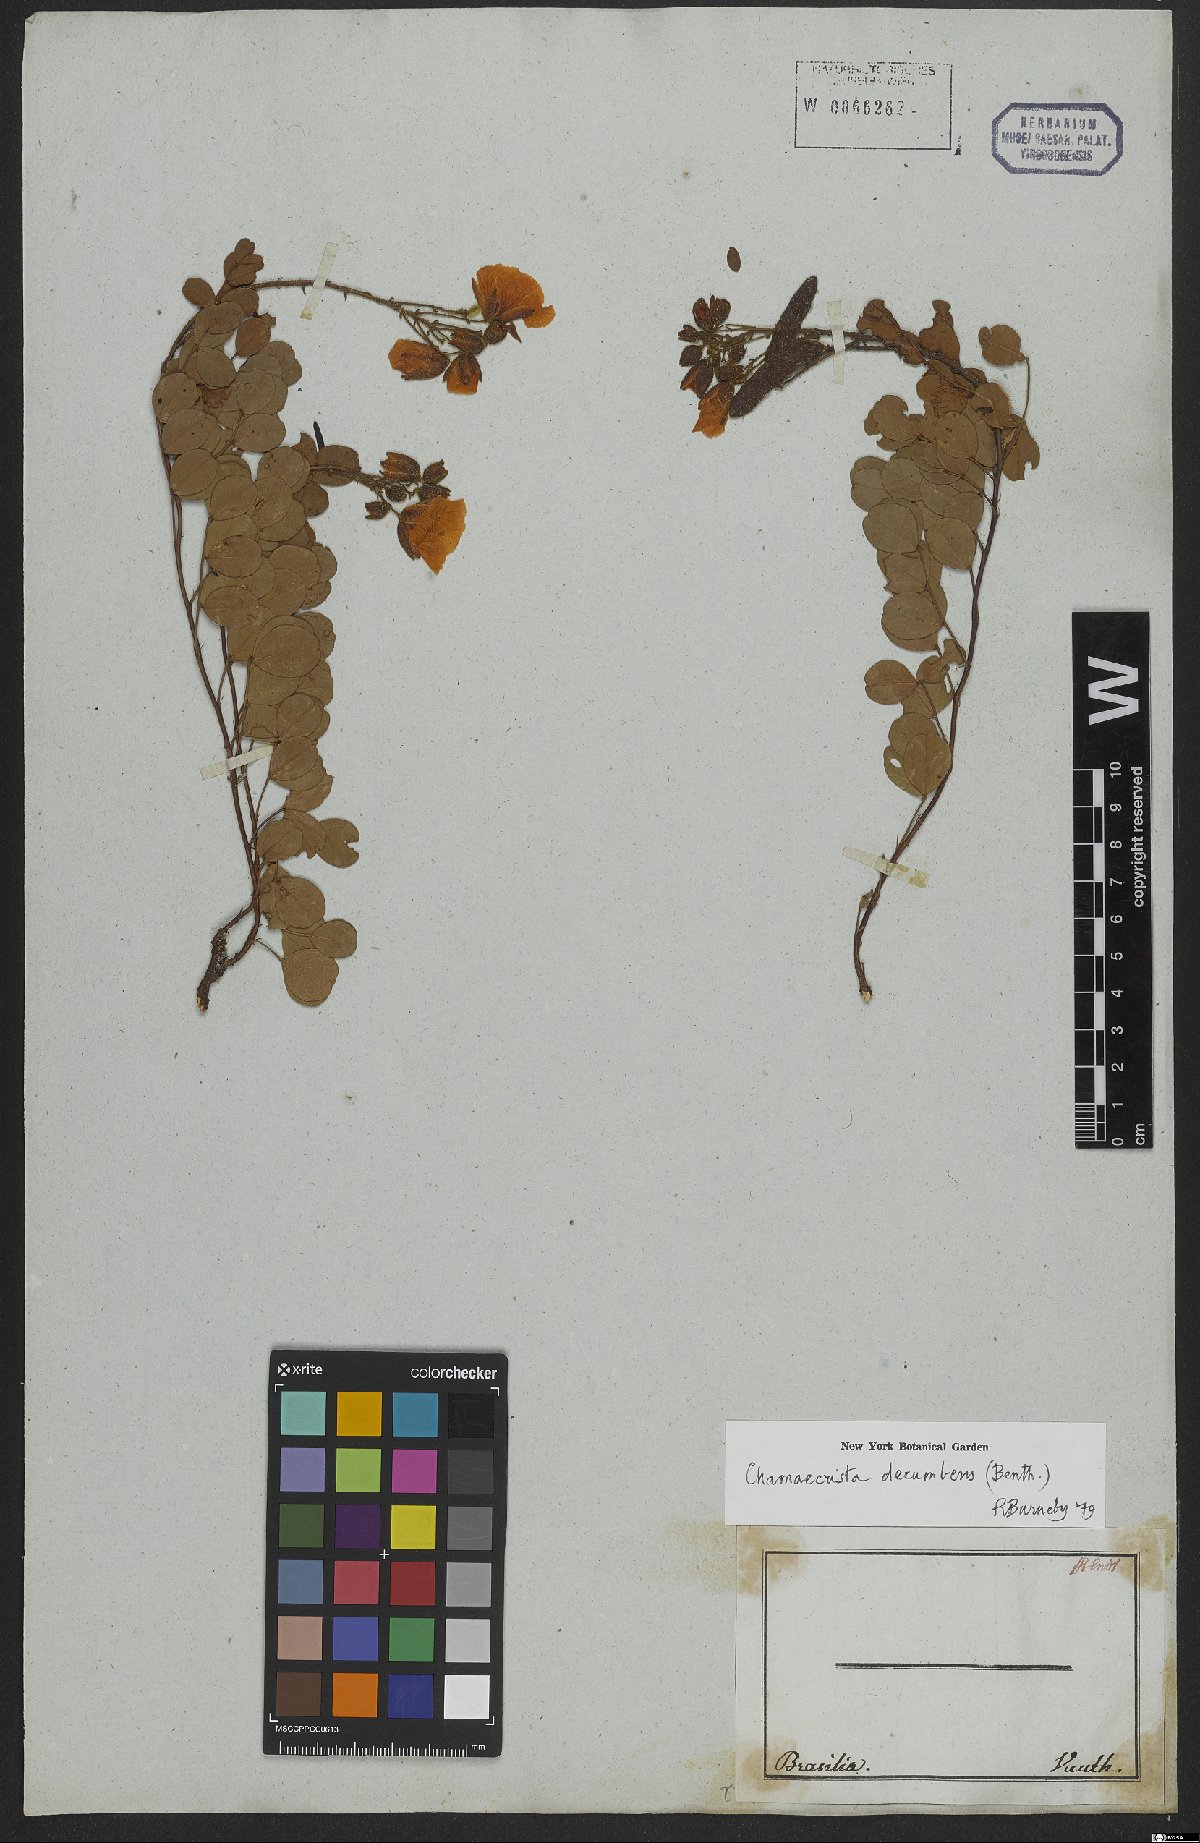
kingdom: Plantae
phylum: Tracheophyta
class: Magnoliopsida
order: Fabales
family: Fabaceae
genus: Chamaecrista
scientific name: Chamaecrista decumbens
